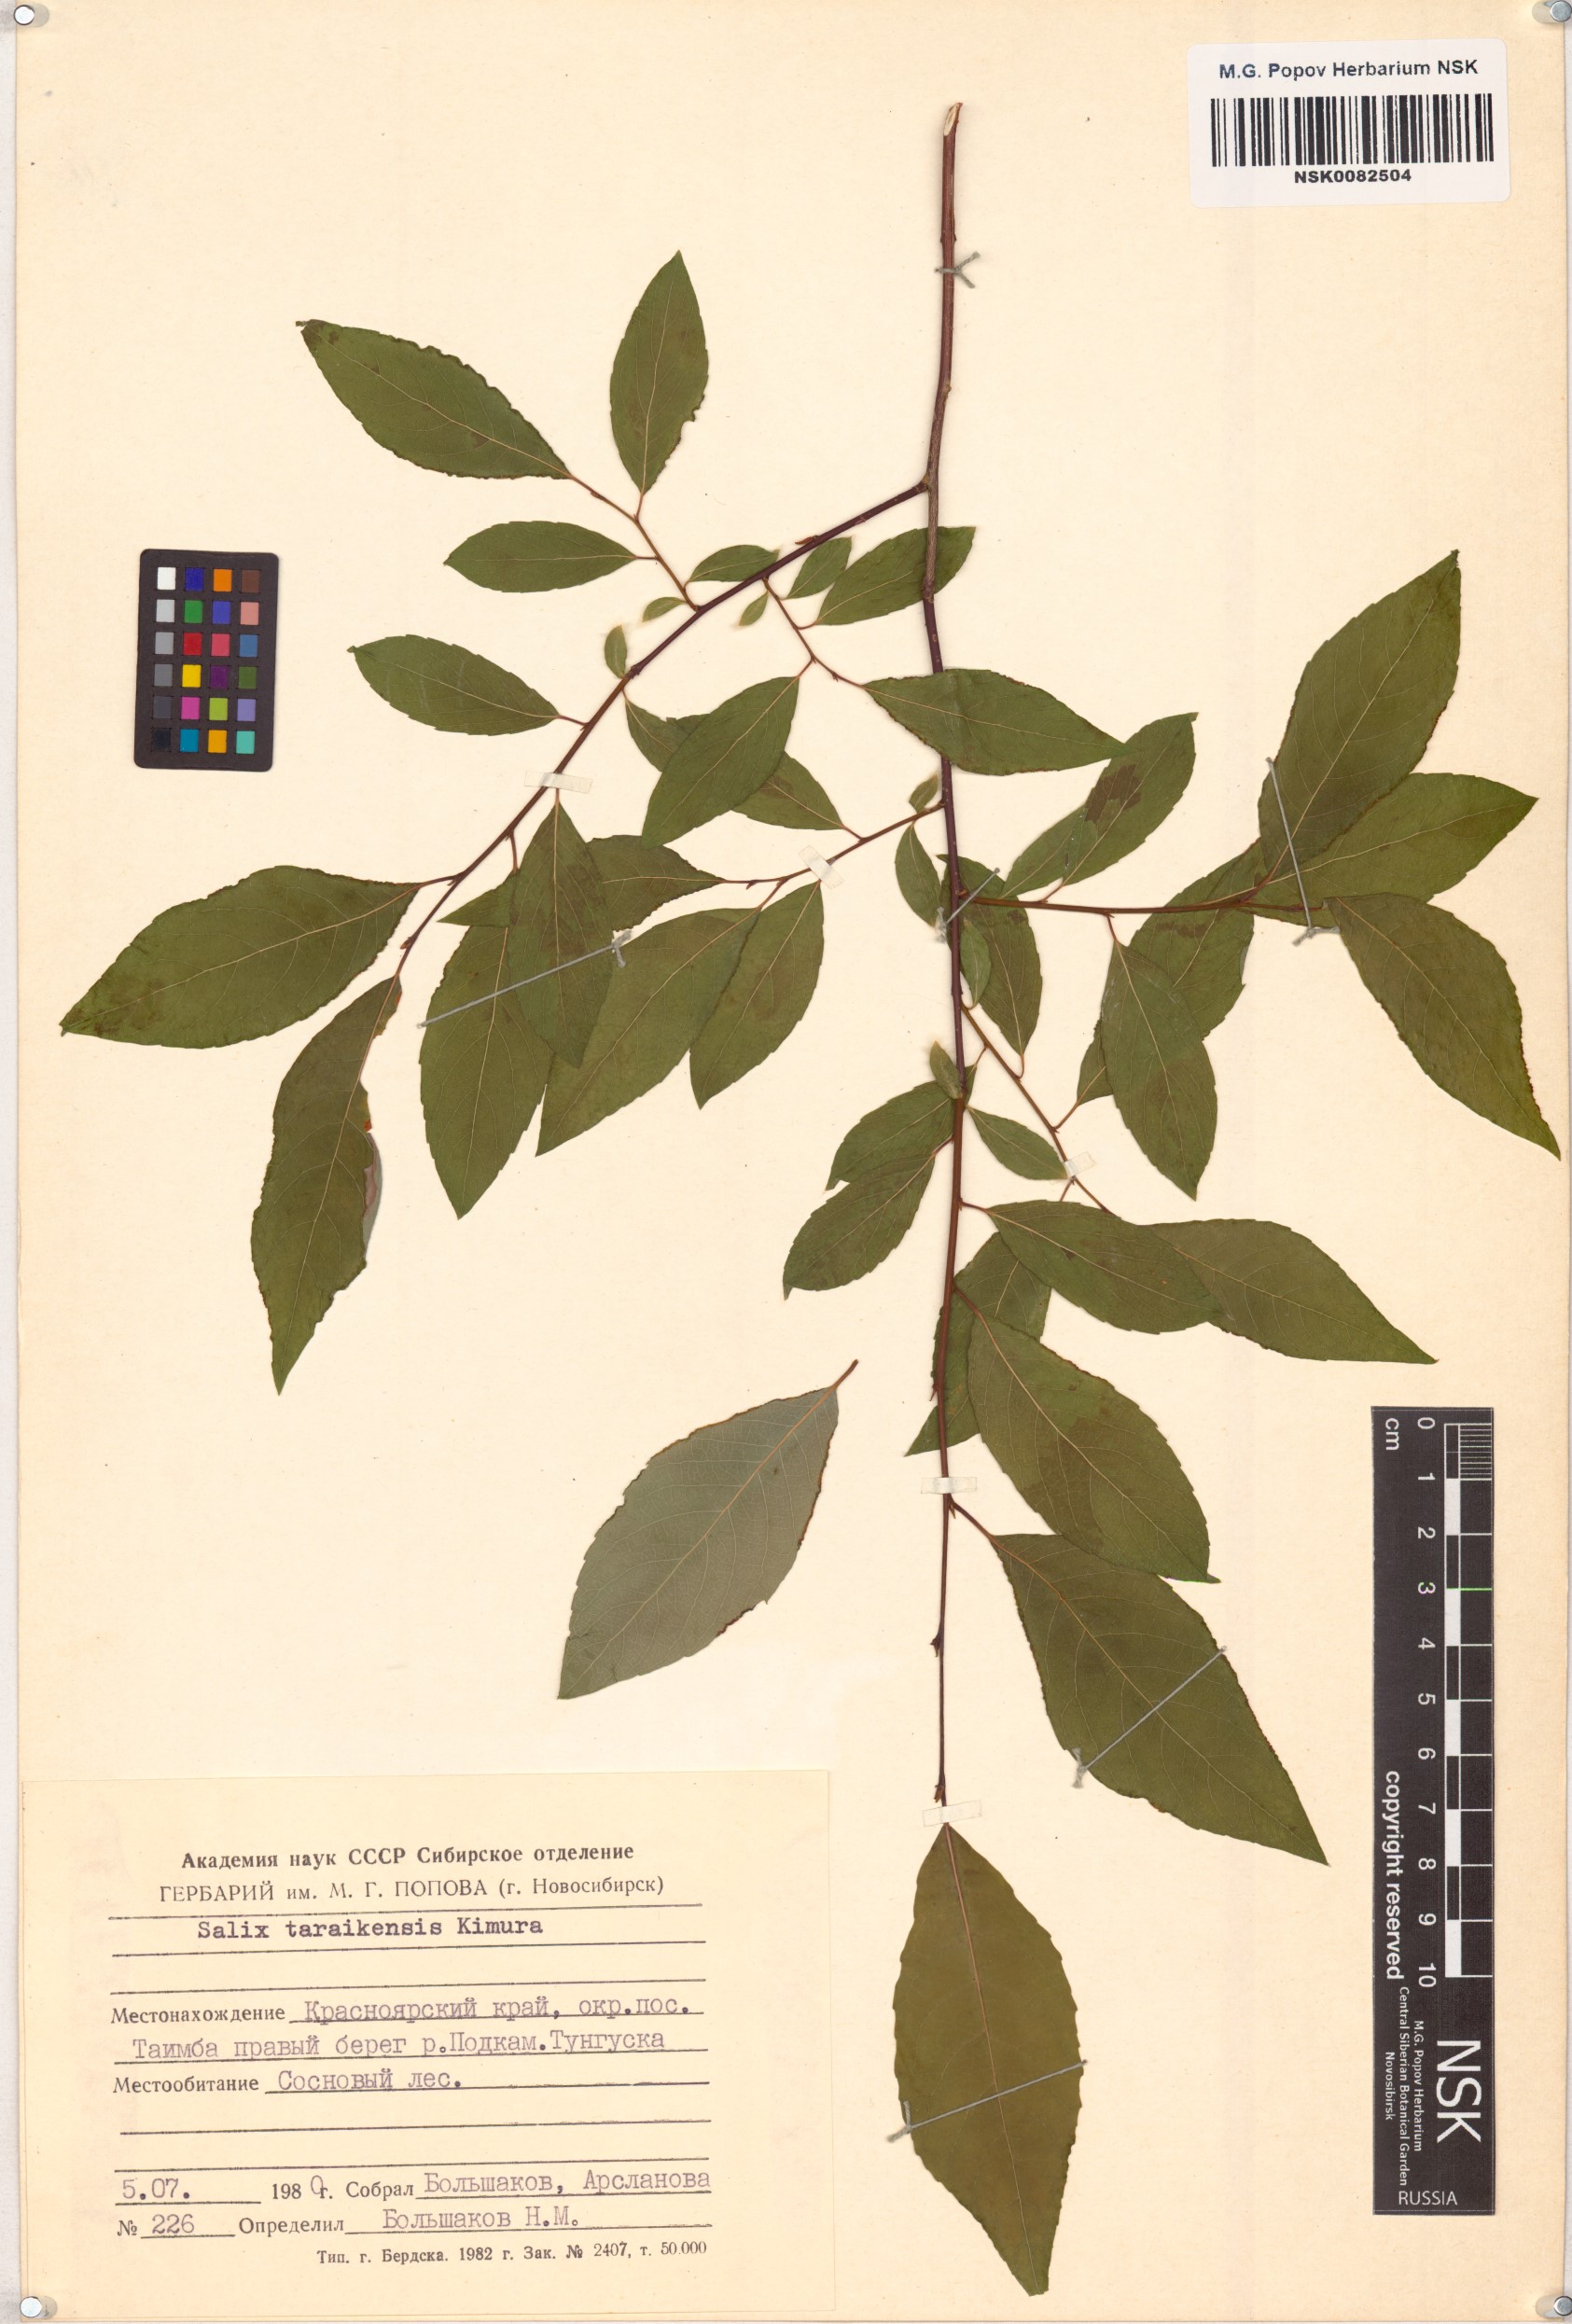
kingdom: Plantae
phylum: Tracheophyta
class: Magnoliopsida
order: Malpighiales
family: Salicaceae
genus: Salix
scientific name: Salix taraikensis
